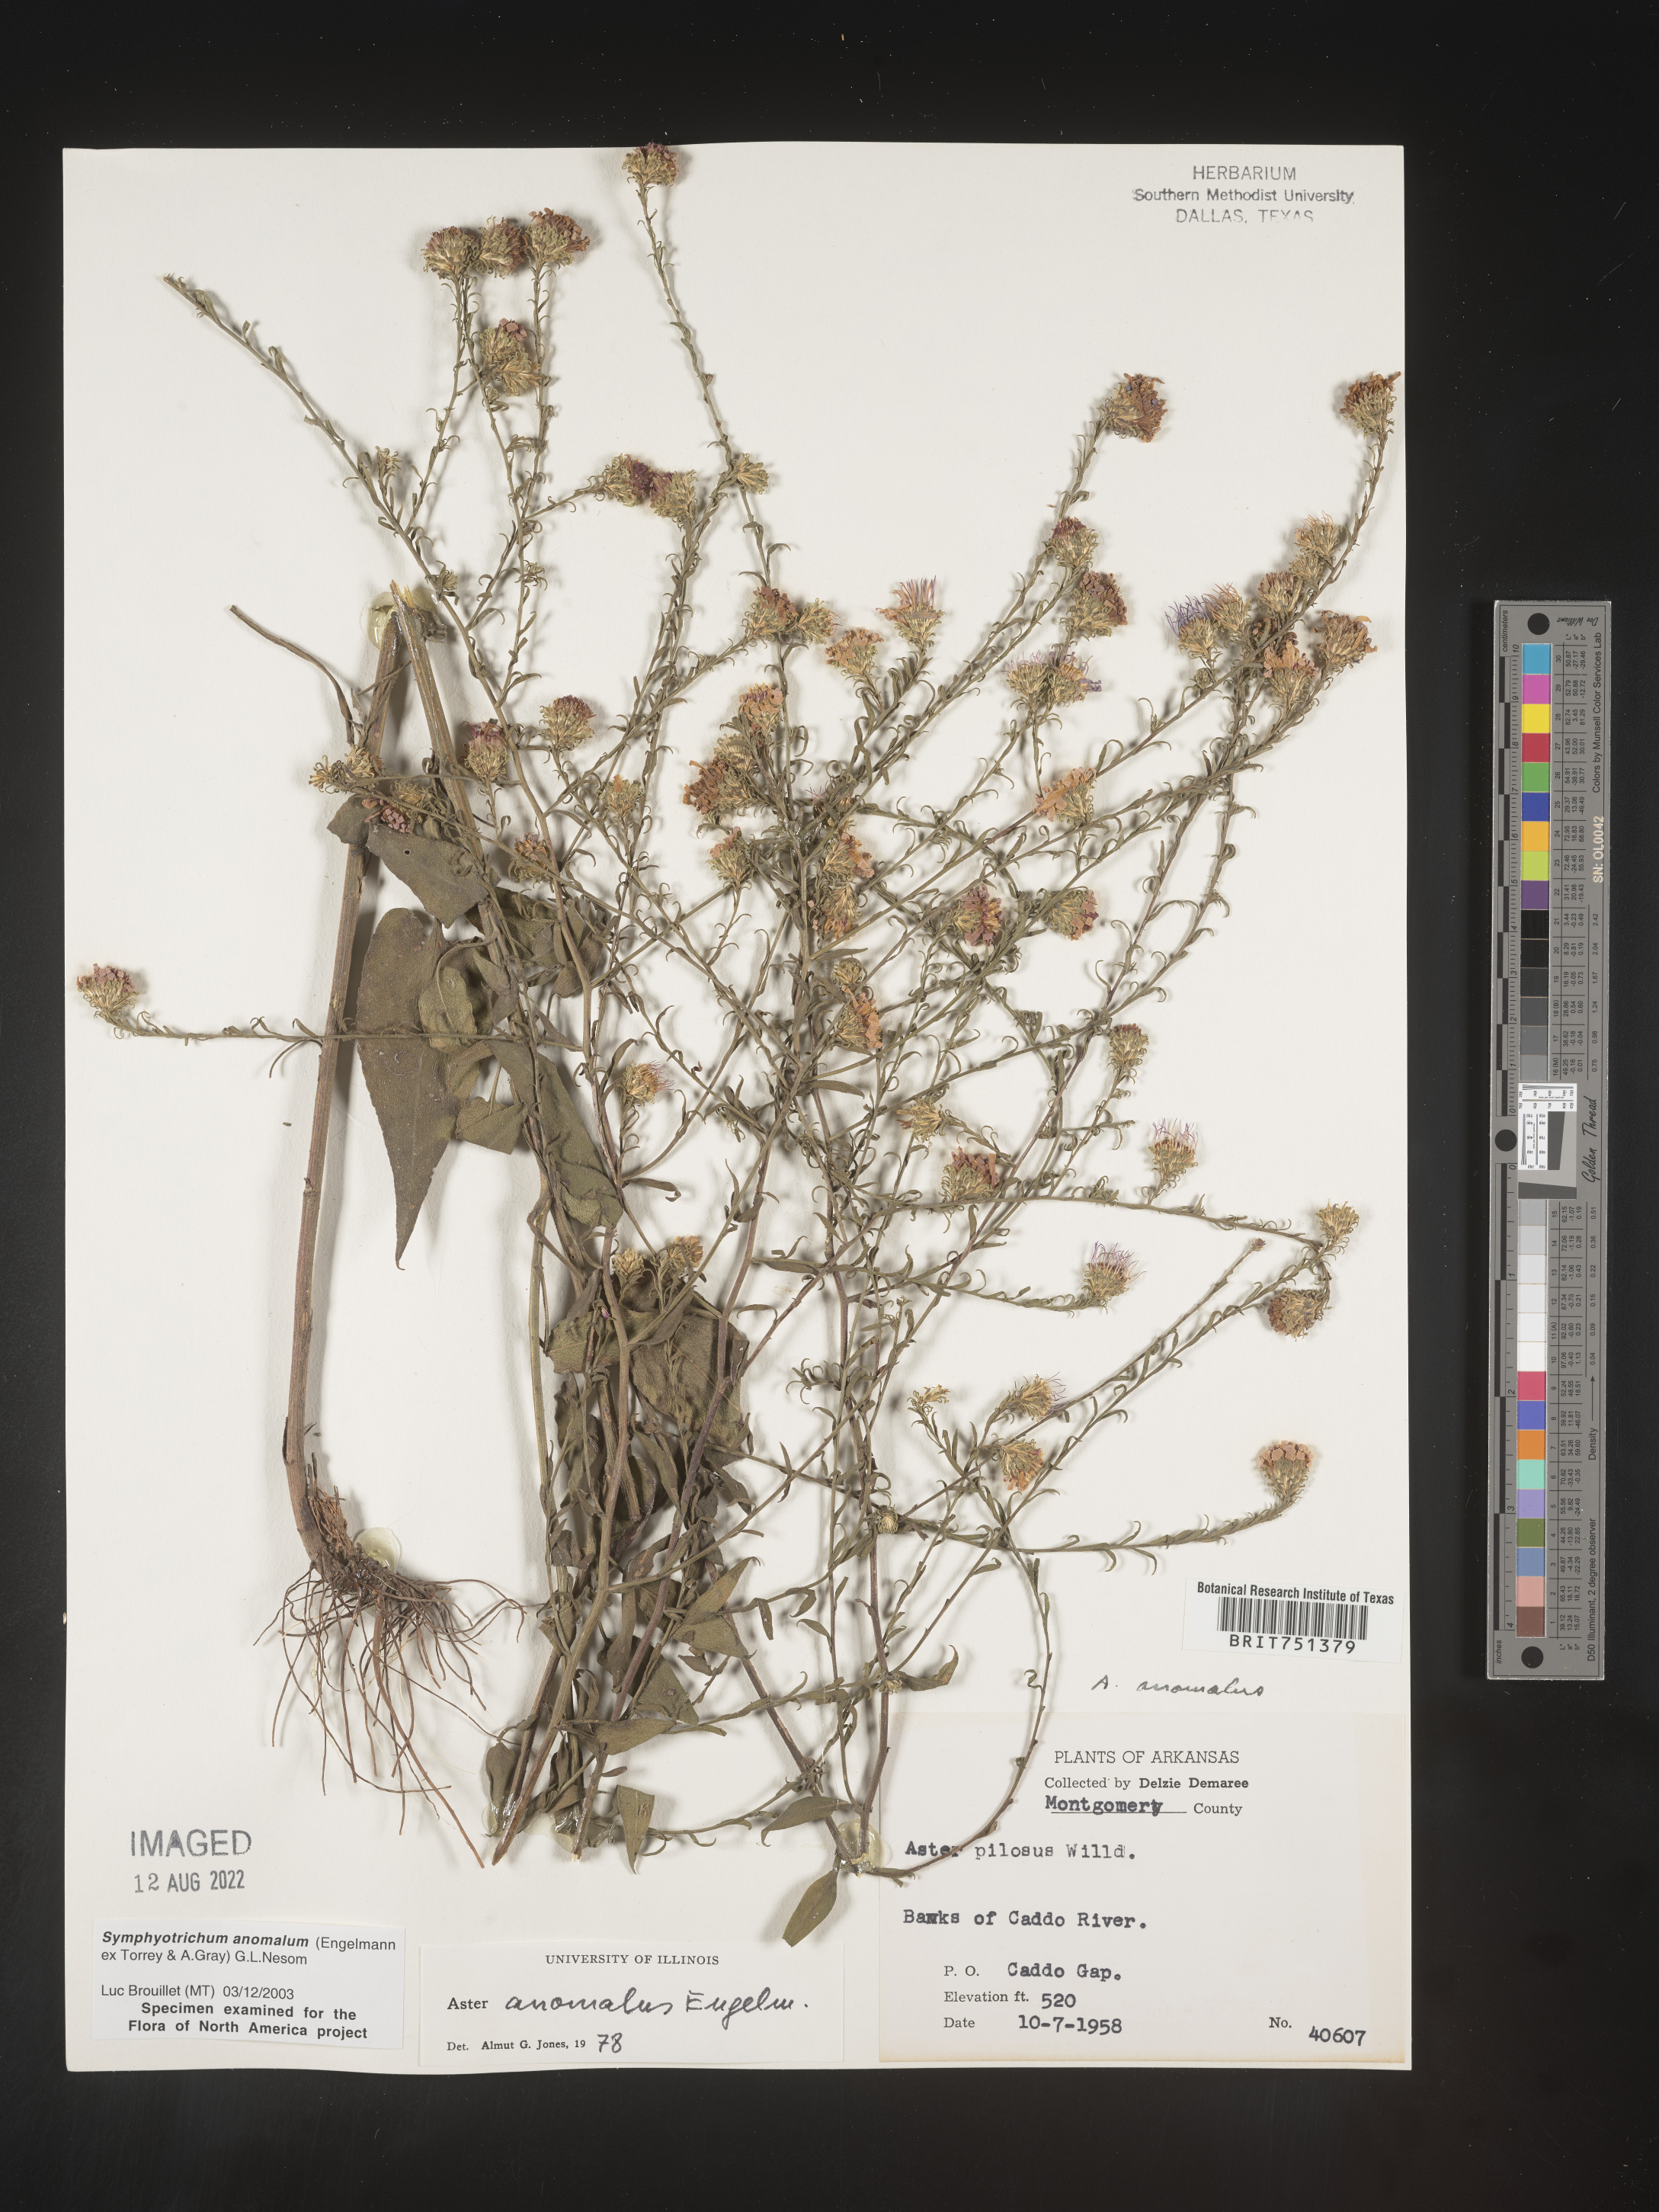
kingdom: Plantae
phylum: Tracheophyta
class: Magnoliopsida
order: Asterales
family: Asteraceae
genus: Symphyotrichum
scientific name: Symphyotrichum anomalum
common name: Many-ray aster
